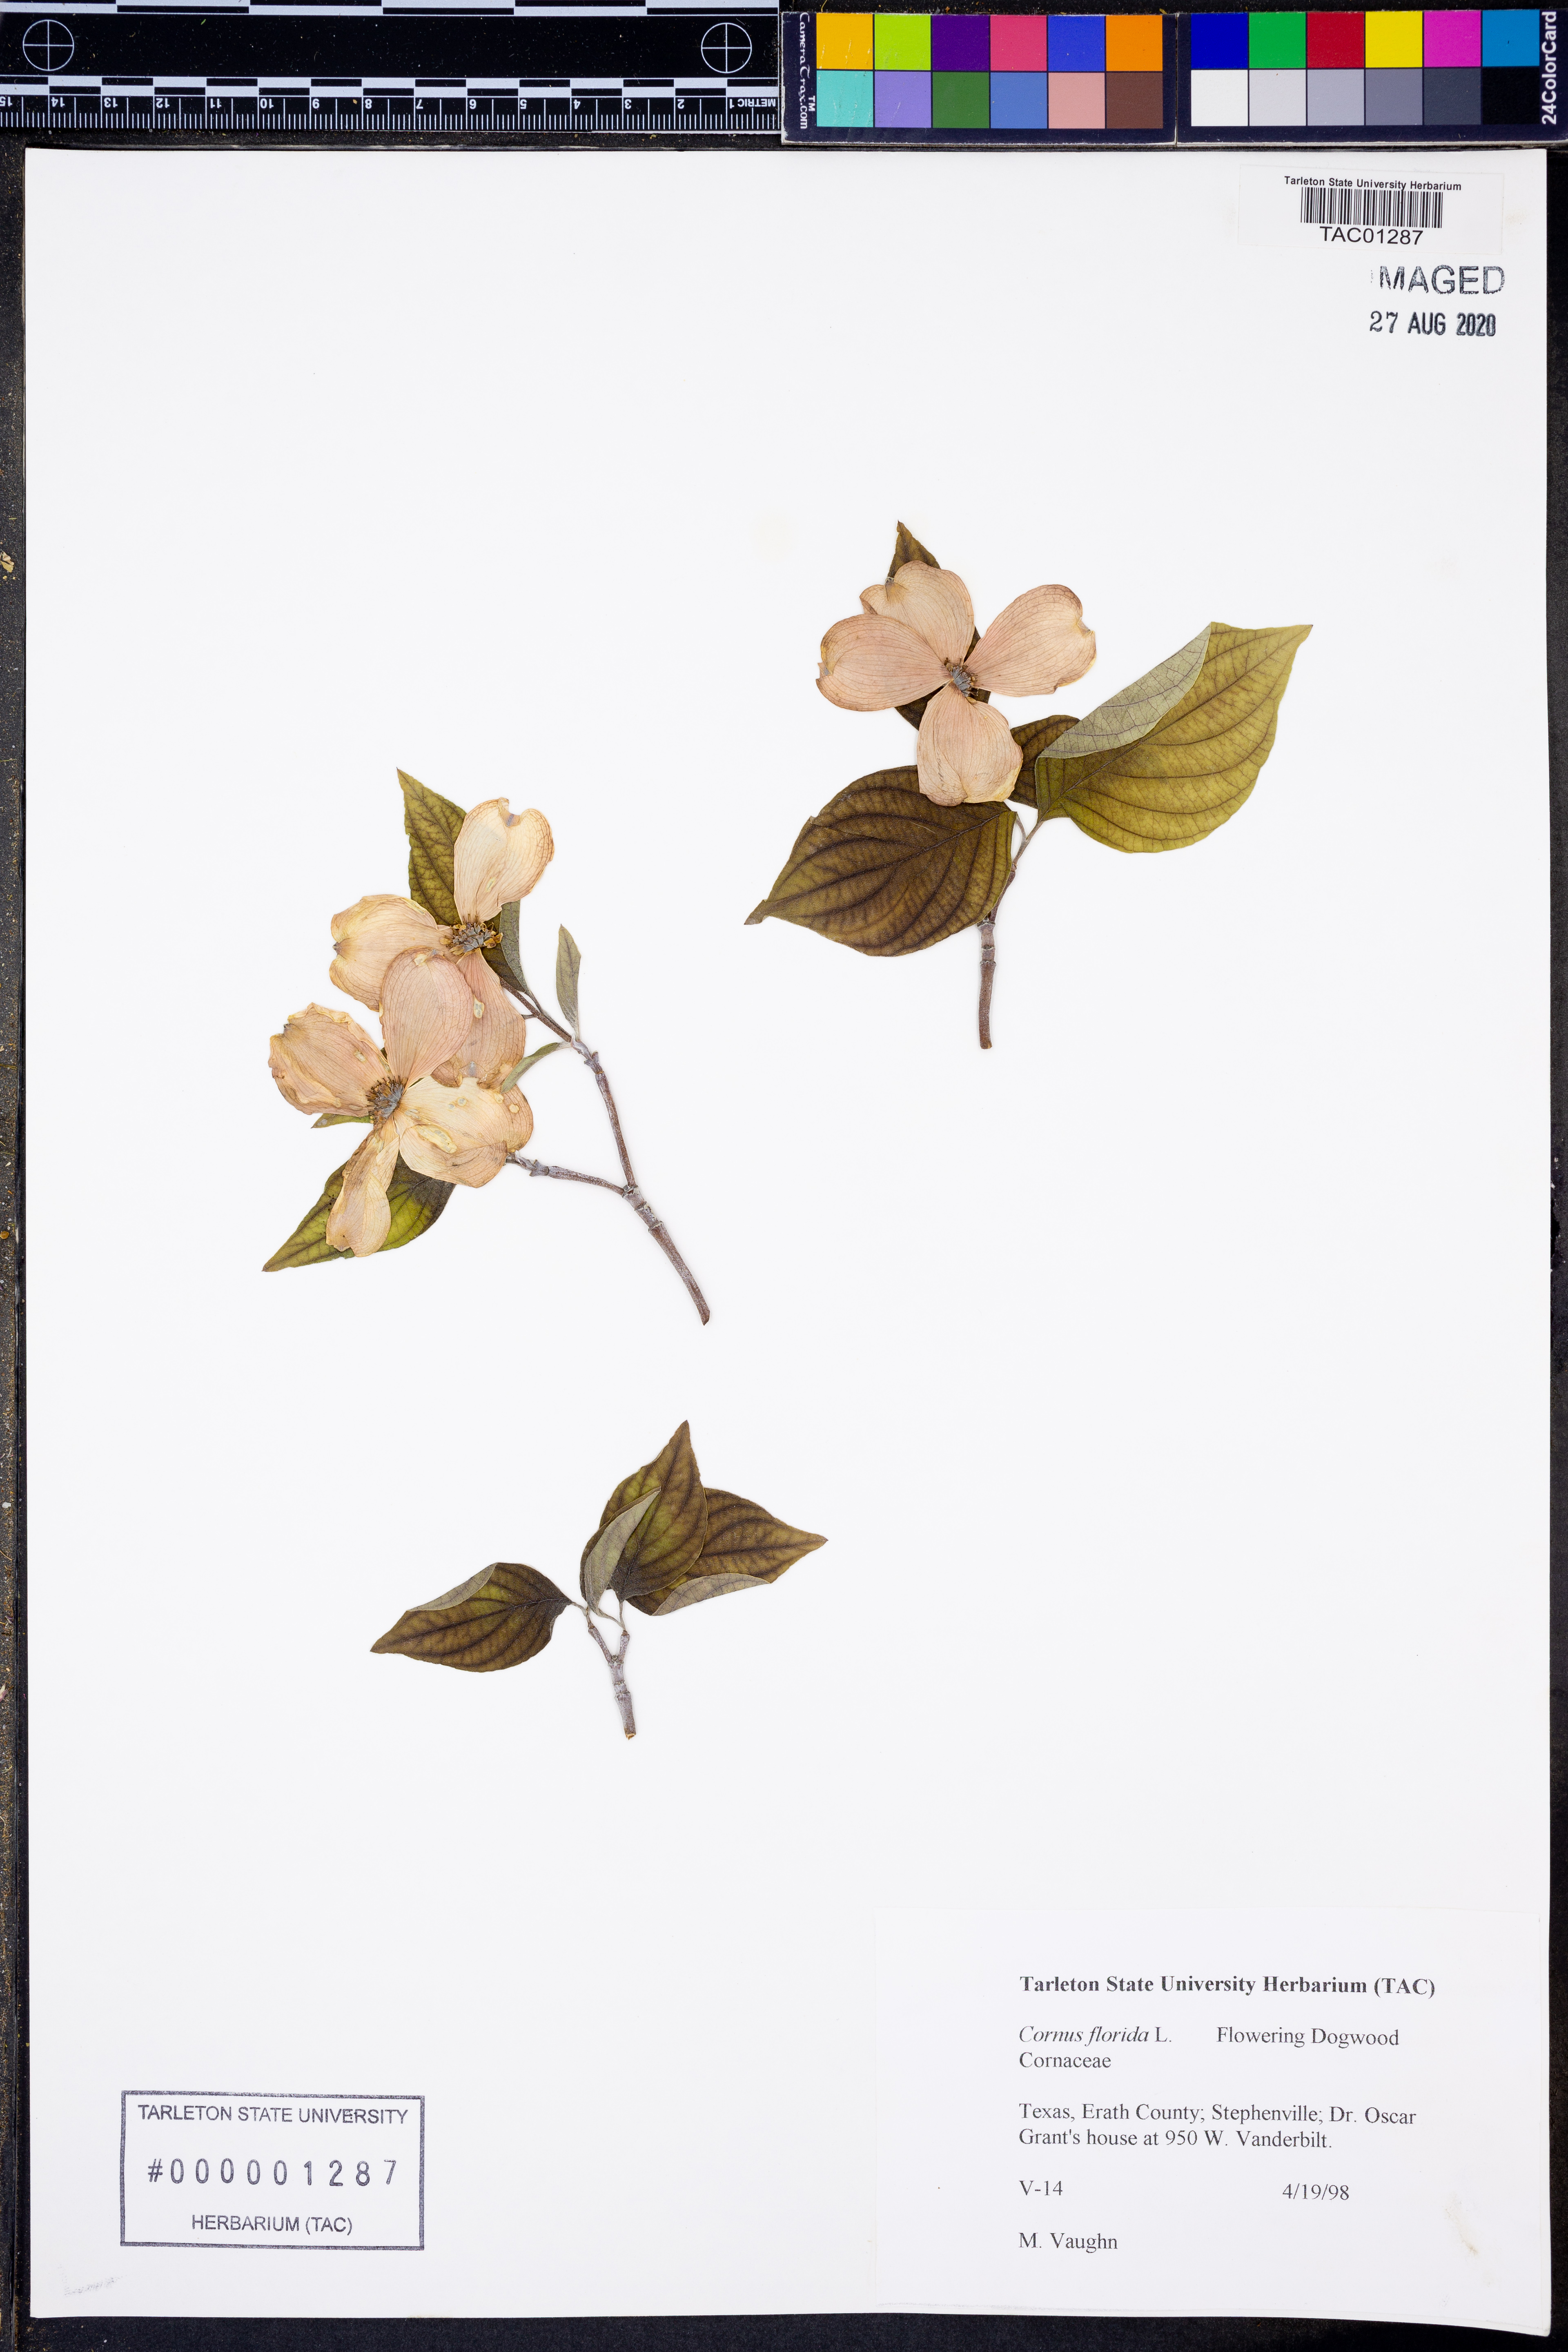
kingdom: Plantae
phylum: Tracheophyta
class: Magnoliopsida
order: Cornales
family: Cornaceae
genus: Cornus
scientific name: Cornus florida
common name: Flowering dogwood
